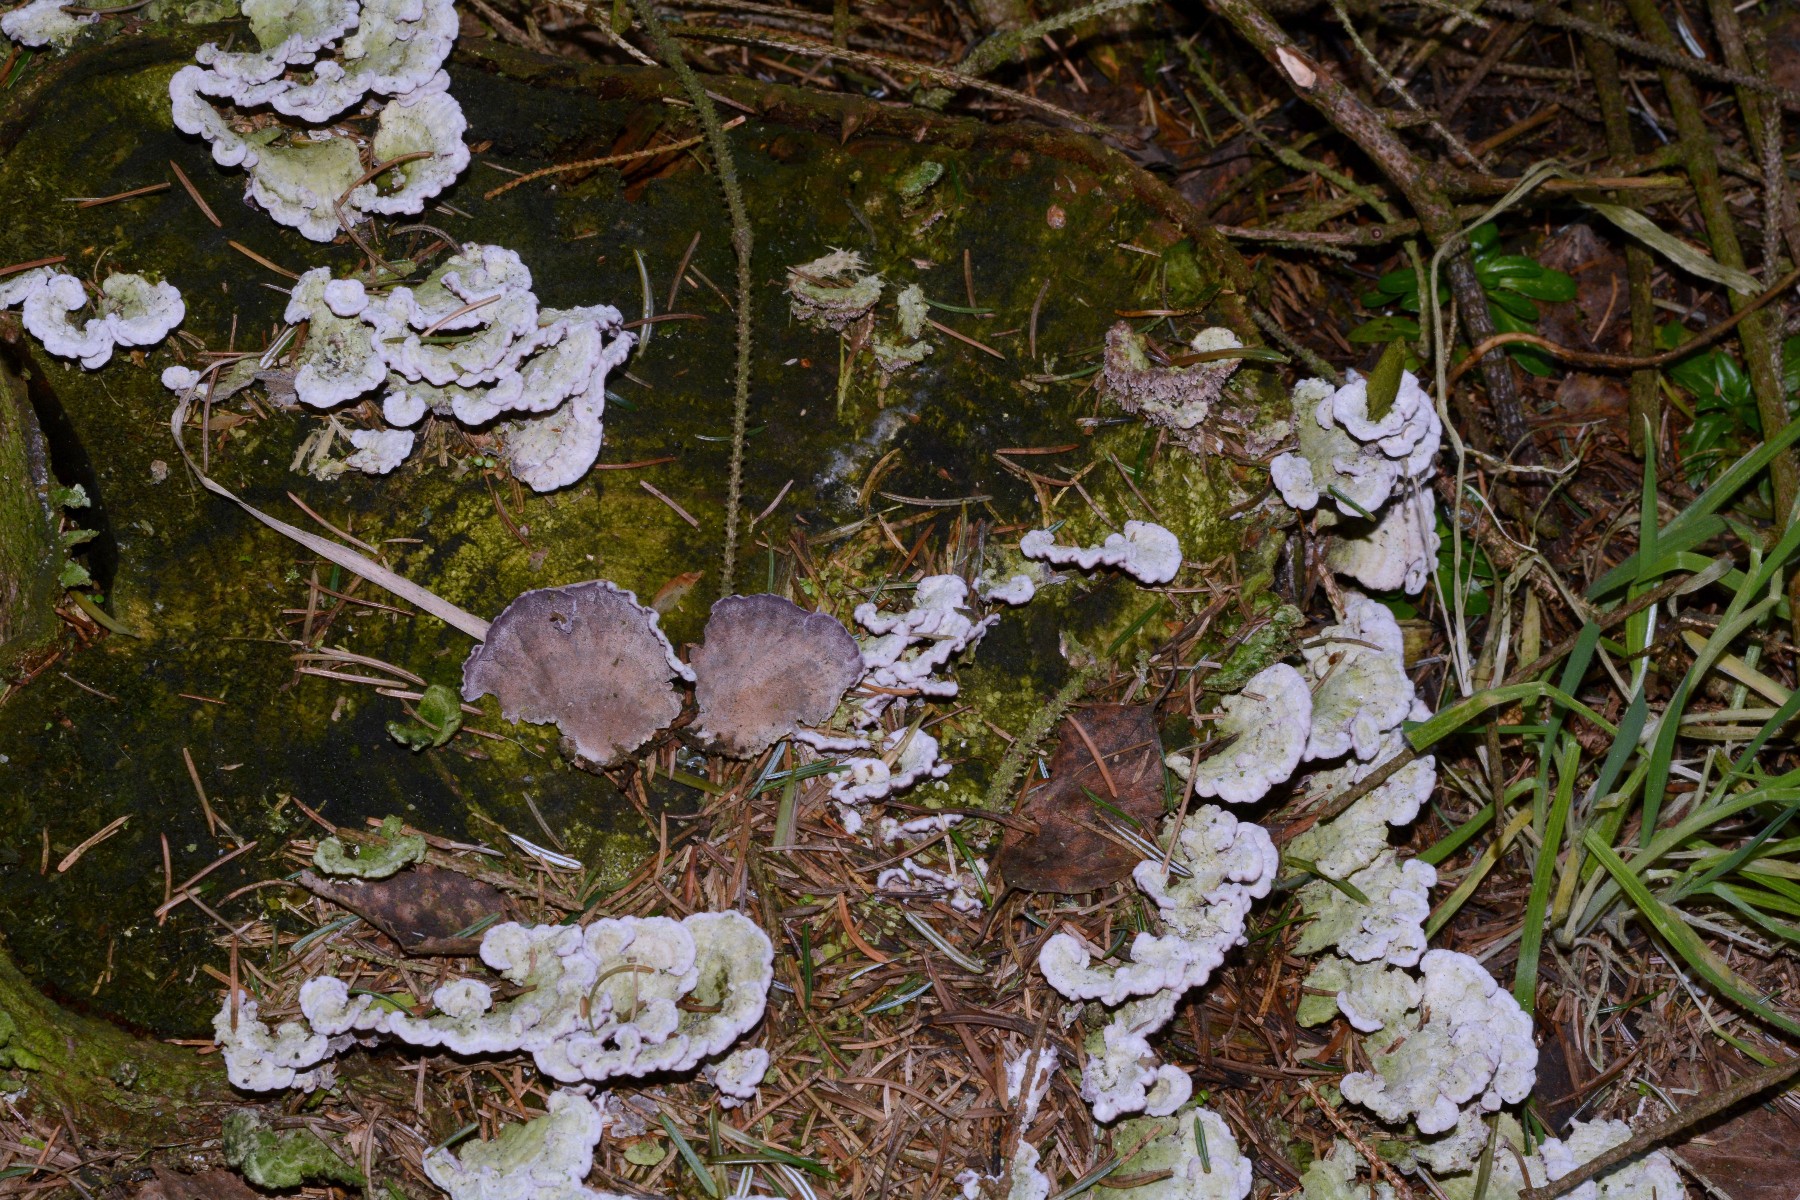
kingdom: Fungi
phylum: Basidiomycota
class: Agaricomycetes
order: Hymenochaetales
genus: Trichaptum
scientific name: Trichaptum abietinum
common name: almindelig violporesvamp
